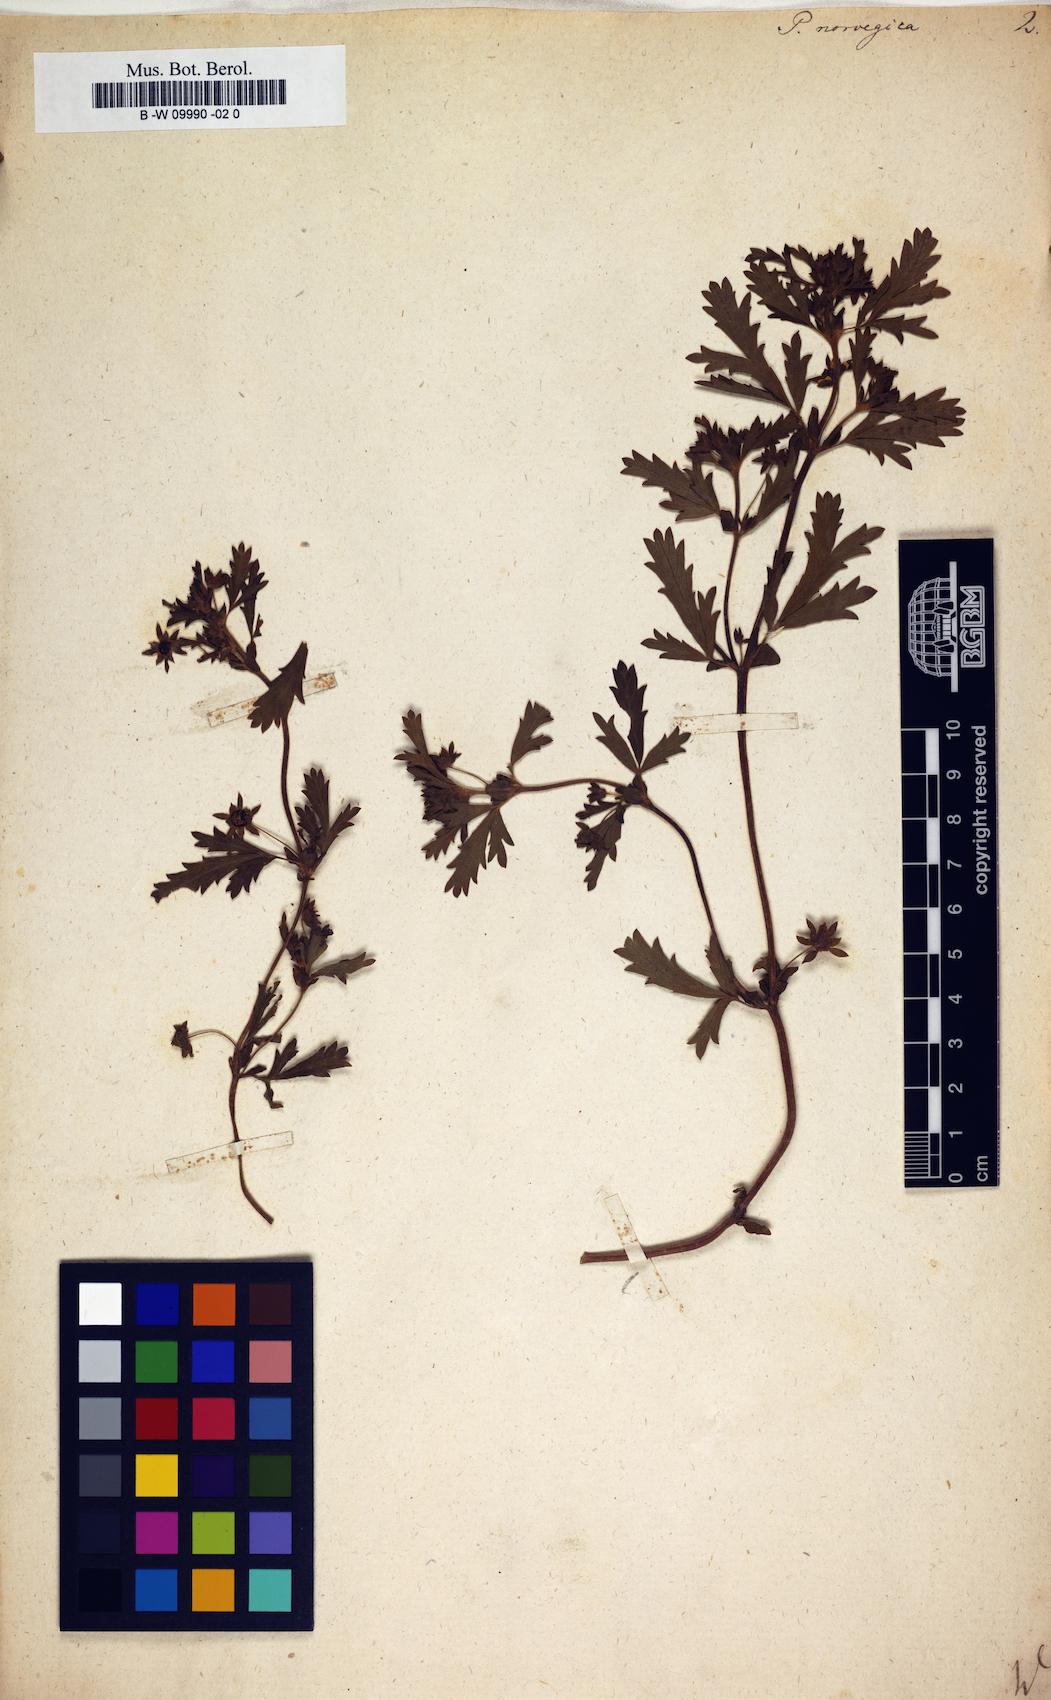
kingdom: Plantae
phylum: Tracheophyta
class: Magnoliopsida
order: Rosales
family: Rosaceae
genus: Potentilla
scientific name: Potentilla norvegica
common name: Ternate-leaved cinquefoil
